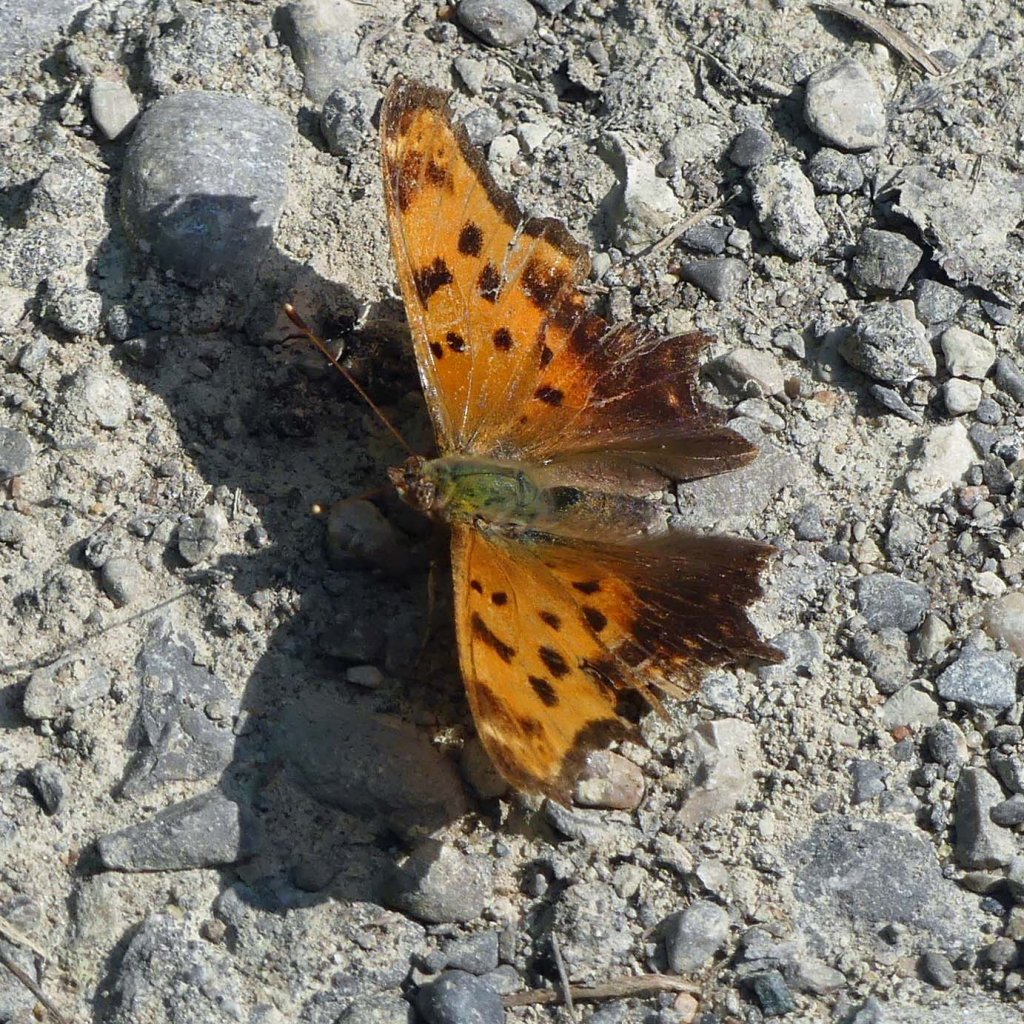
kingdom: Animalia
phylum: Arthropoda
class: Insecta
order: Lepidoptera
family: Nymphalidae
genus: Polygonia
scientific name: Polygonia comma
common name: Eastern Comma
